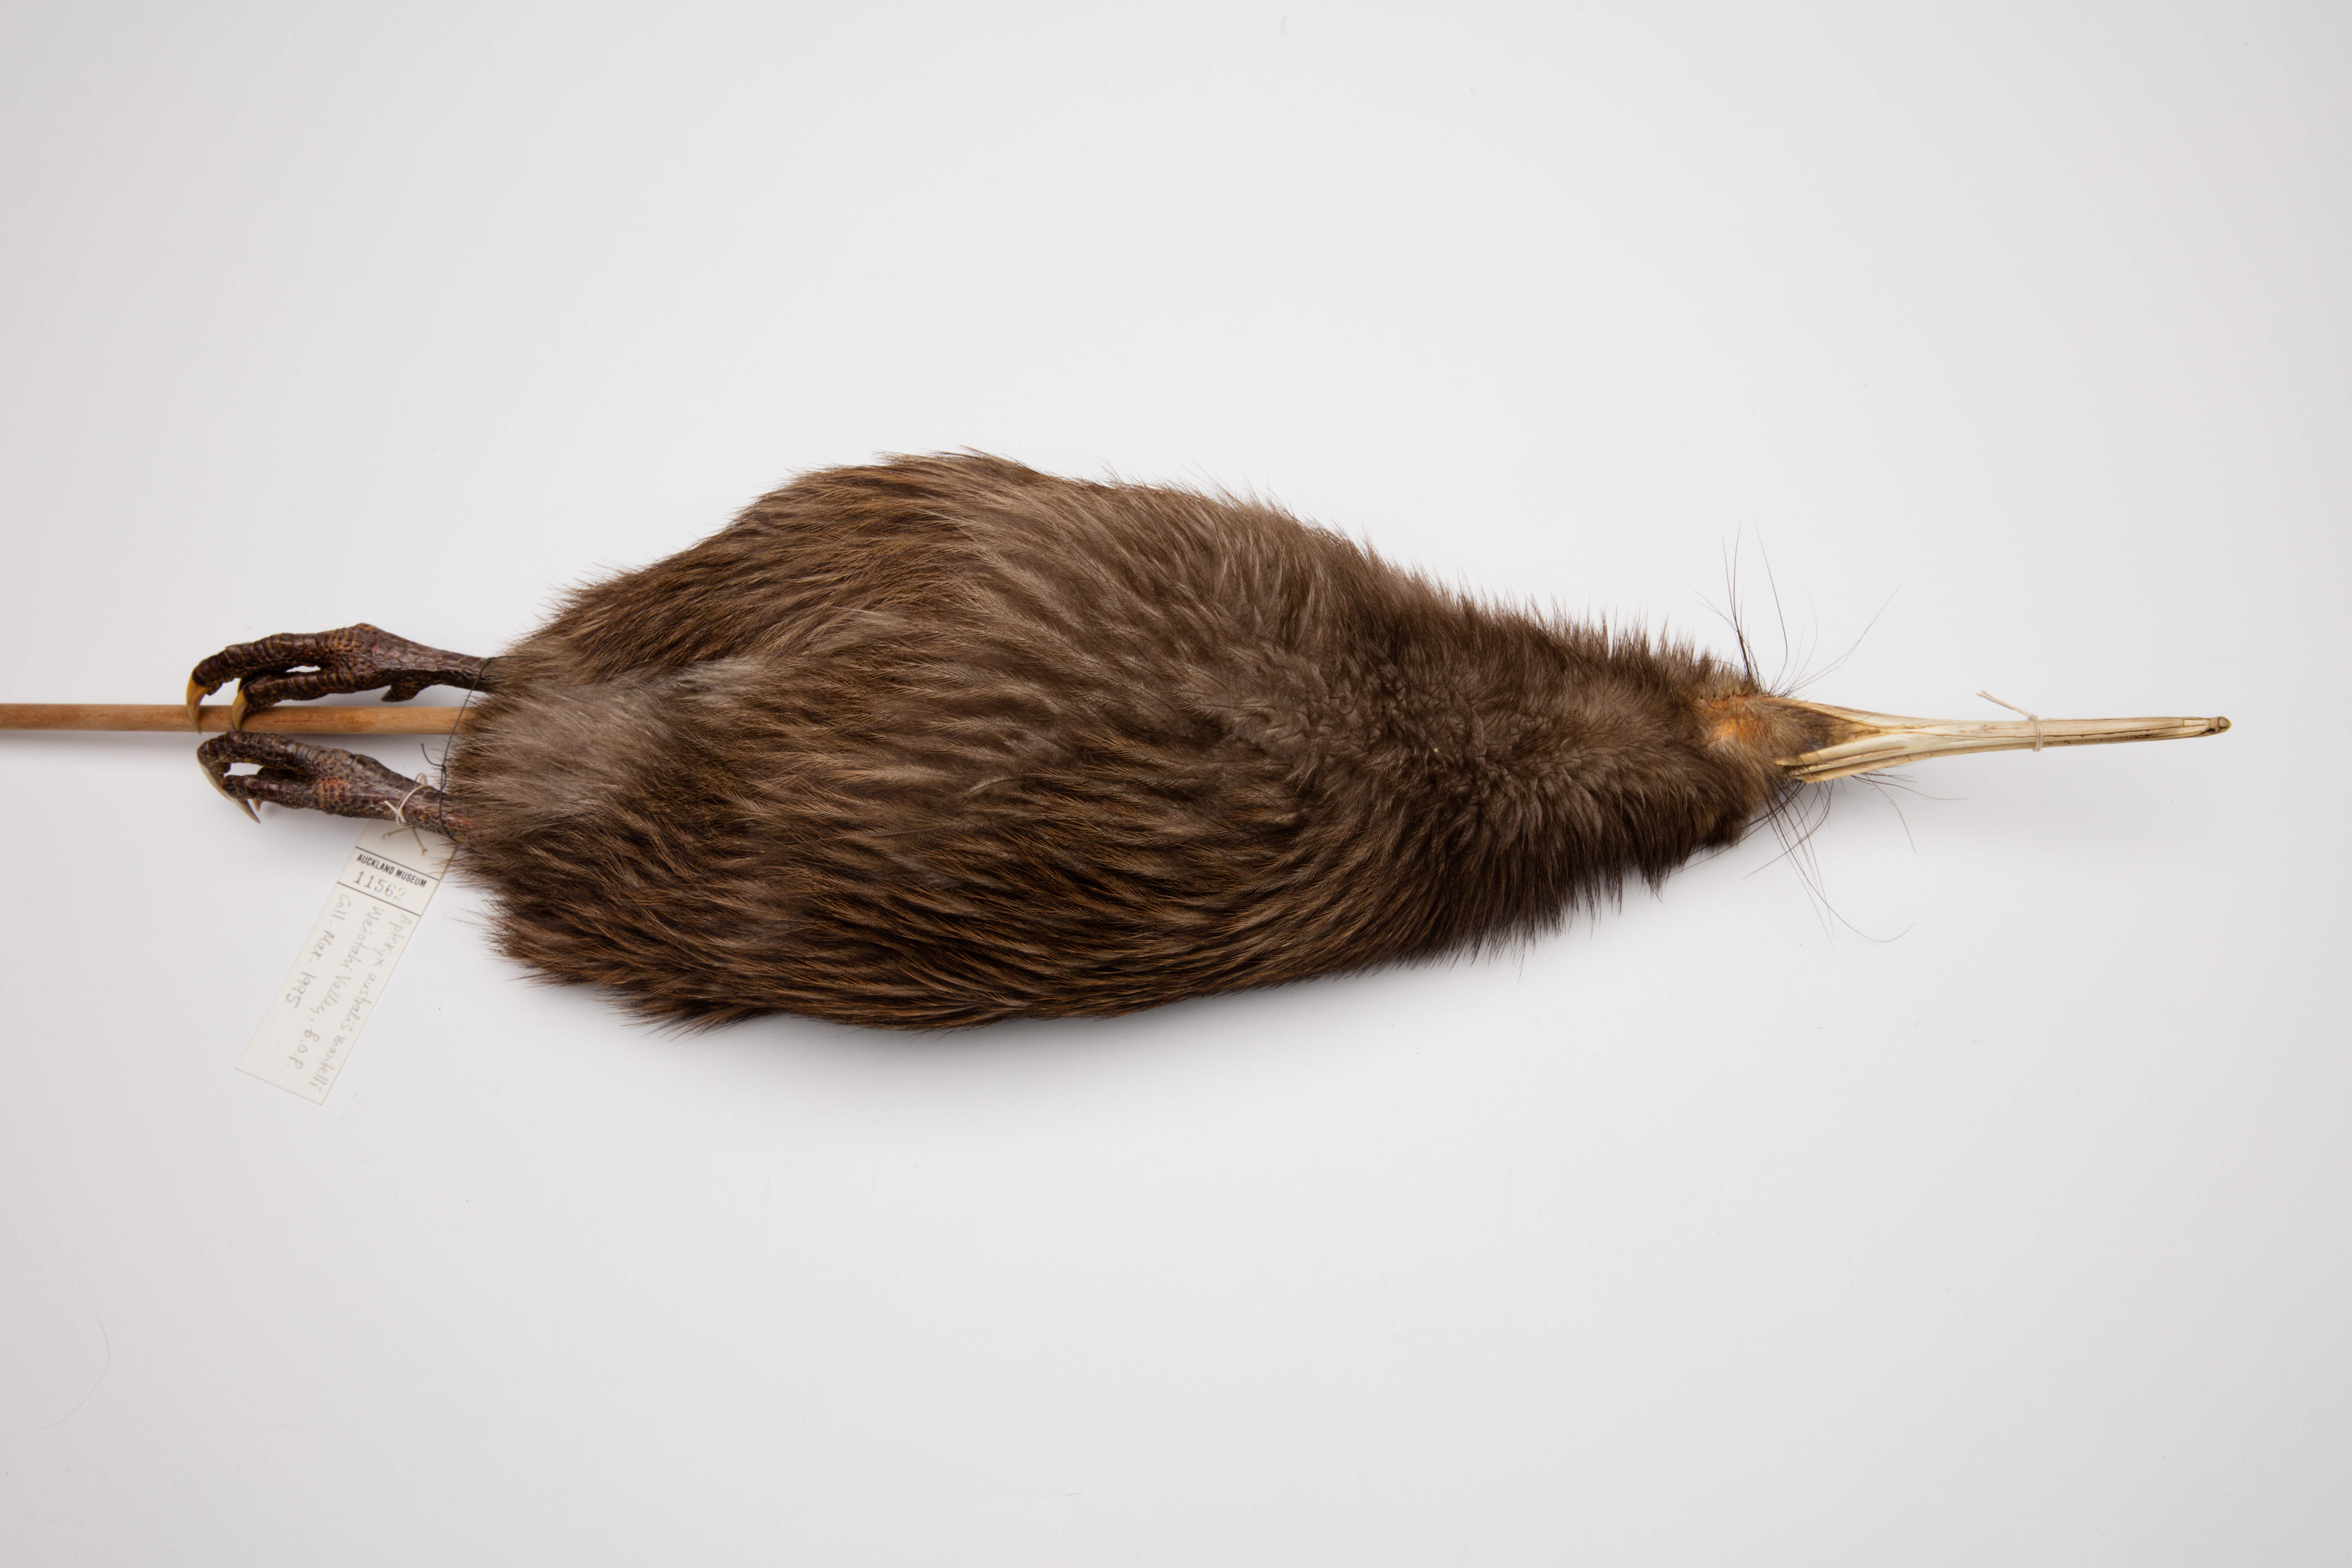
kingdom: Animalia
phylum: Chordata
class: Aves
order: Apterygiformes
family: Apterygidae
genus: Apteryx
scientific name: Apteryx mantelli
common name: North island brown kiwi
